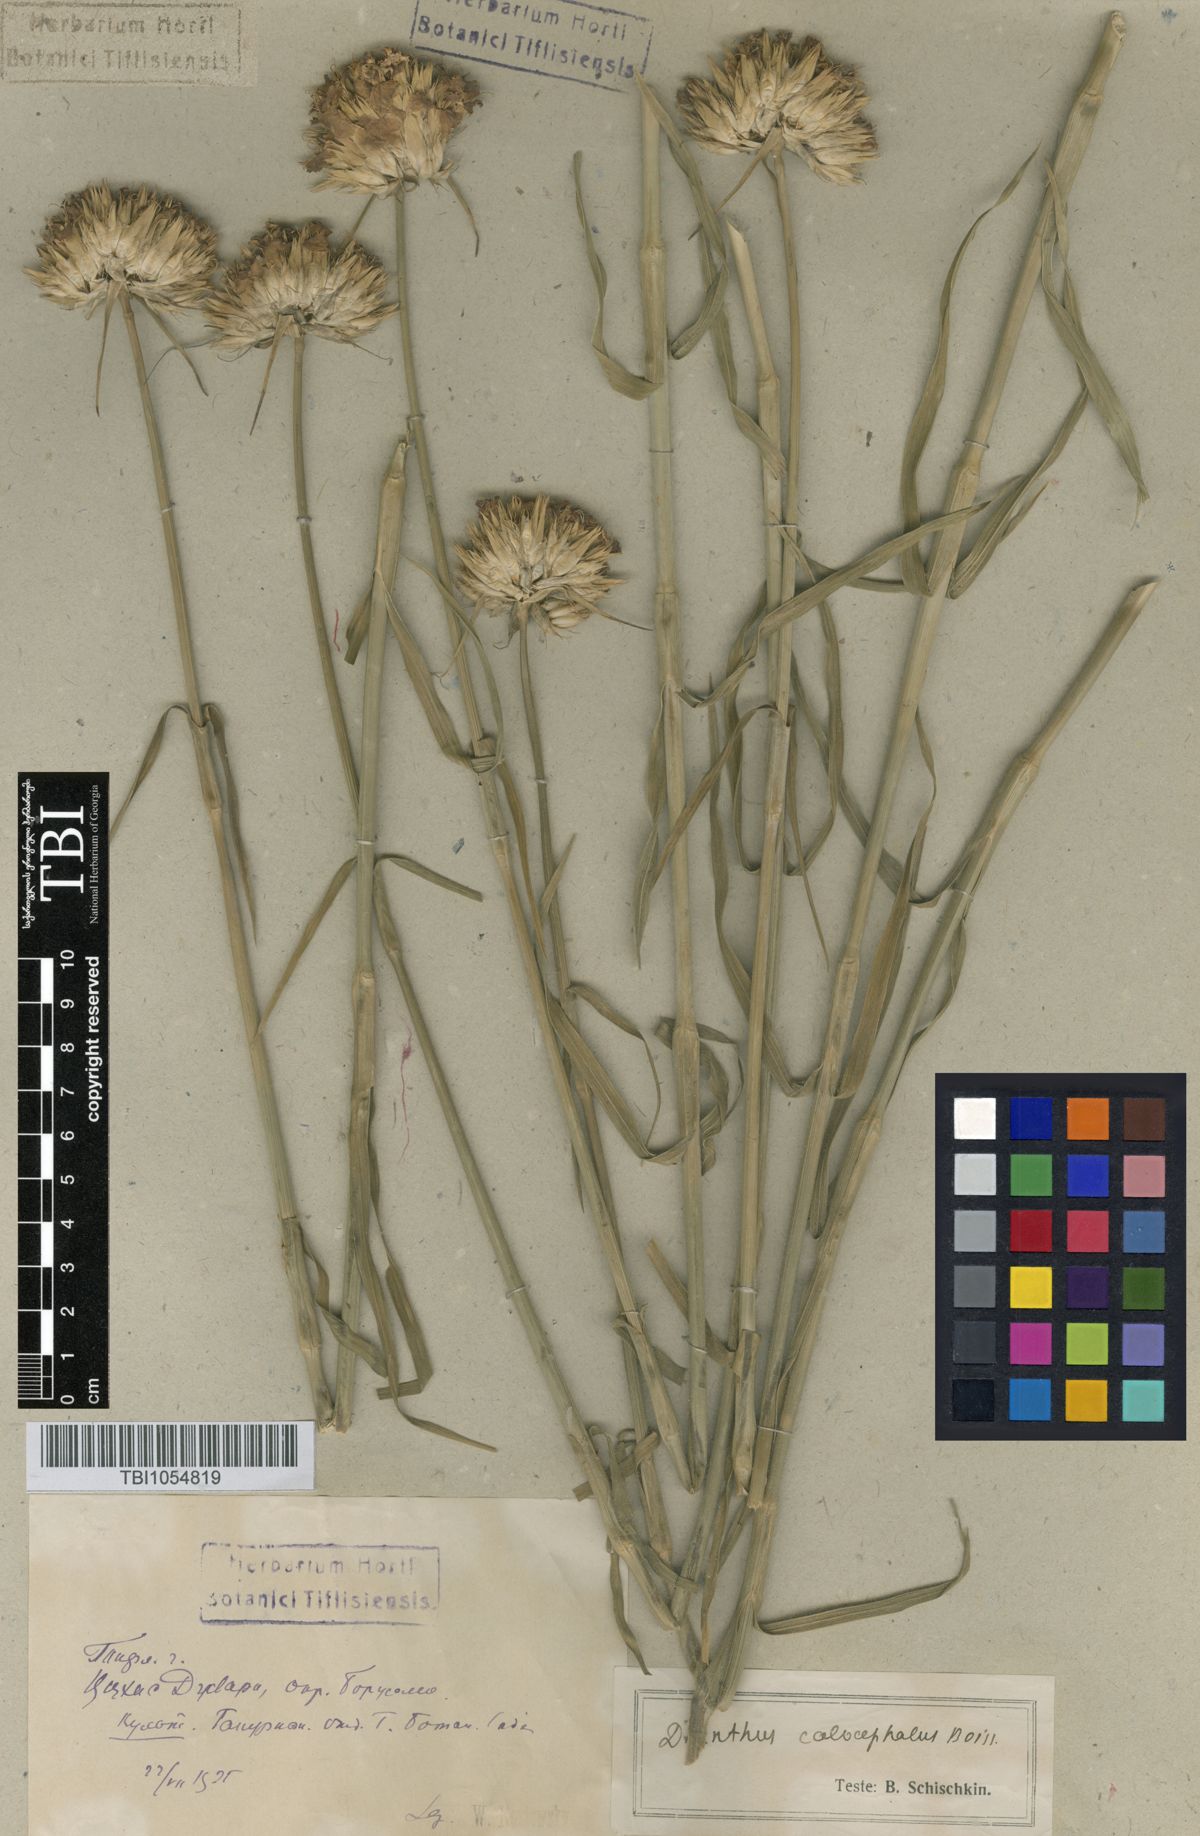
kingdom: Plantae
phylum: Tracheophyta
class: Magnoliopsida
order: Caryophyllales
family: Caryophyllaceae
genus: Dianthus
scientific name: Dianthus cruentus
